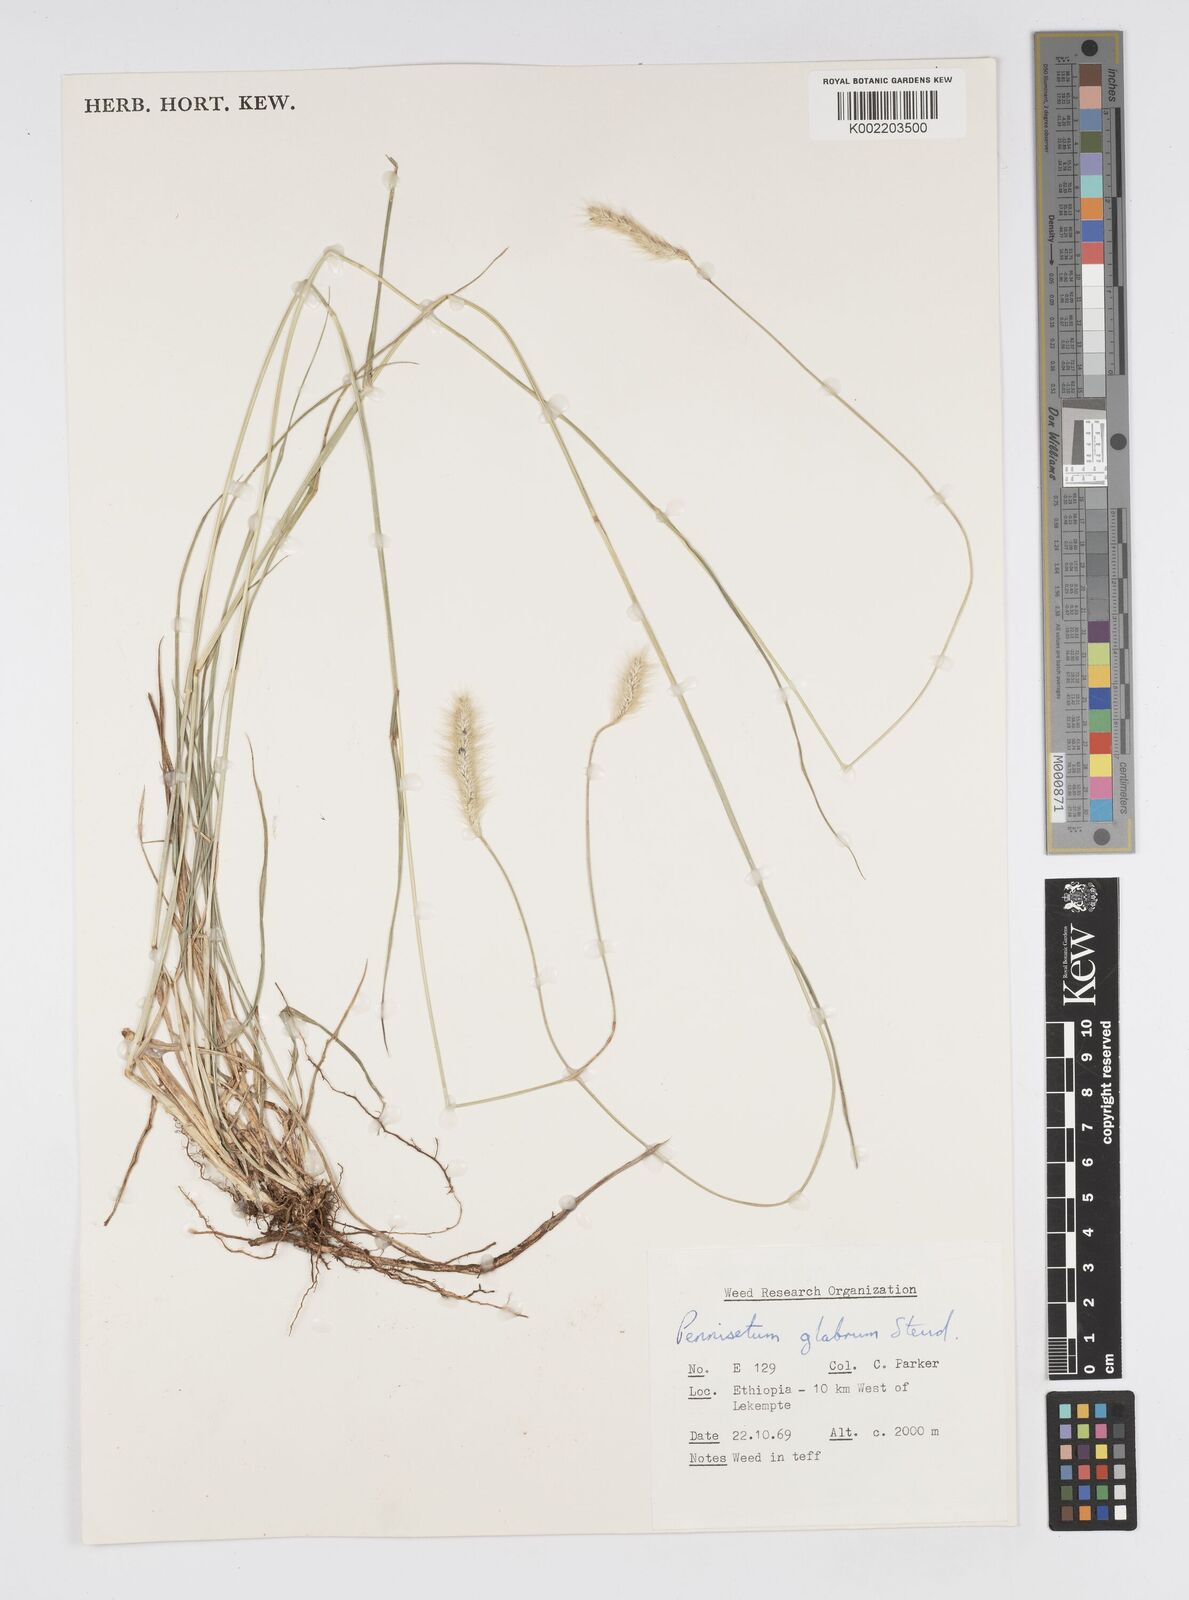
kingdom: Plantae
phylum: Tracheophyta
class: Liliopsida
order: Poales
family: Poaceae
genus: Cenchrus
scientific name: Cenchrus geniculatus
